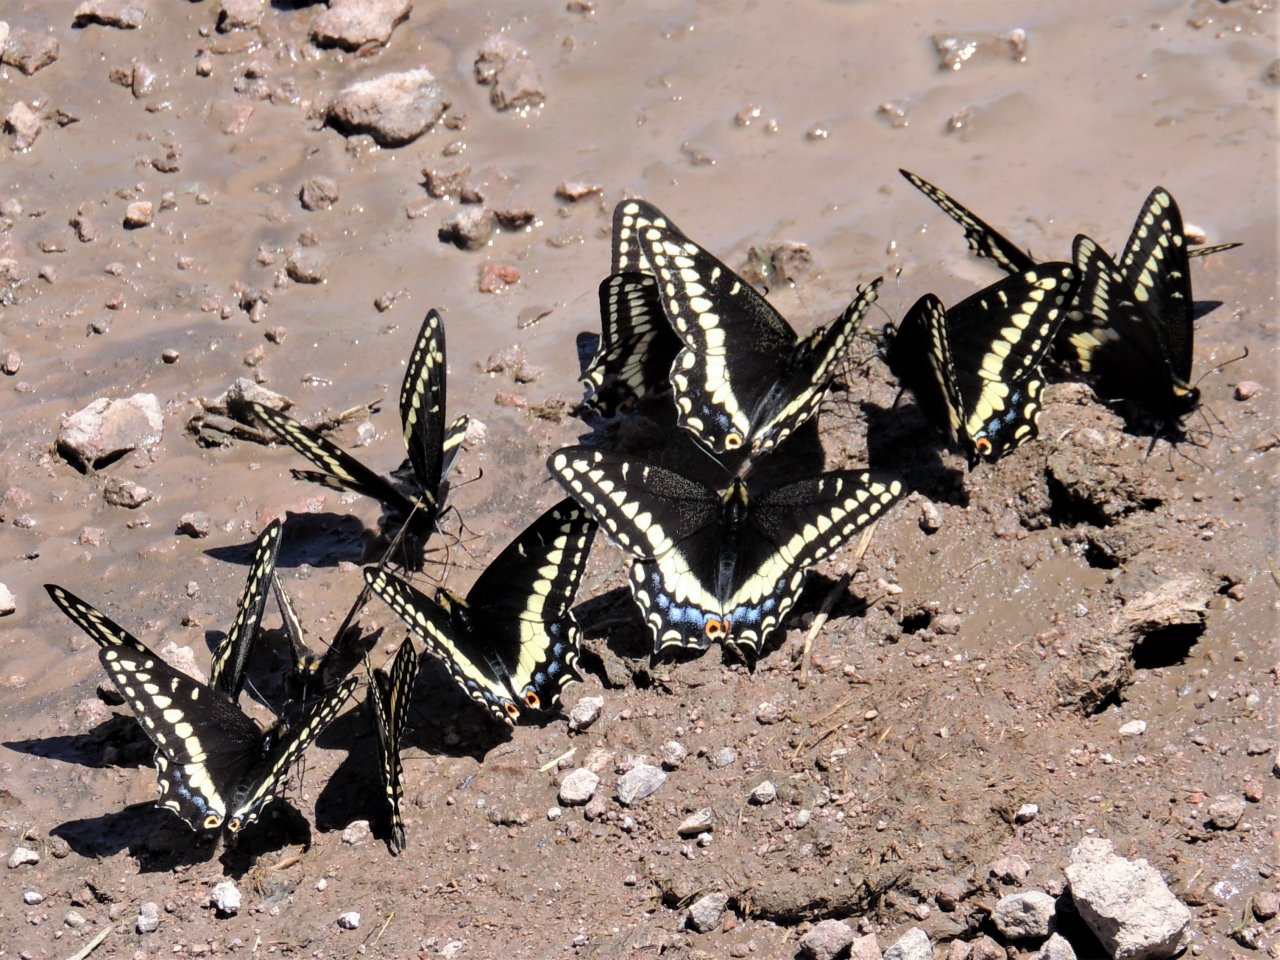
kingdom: Animalia
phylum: Arthropoda
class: Insecta
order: Lepidoptera
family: Papilionidae
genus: Papilio
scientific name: Papilio indra
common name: Indra Swallowtail
